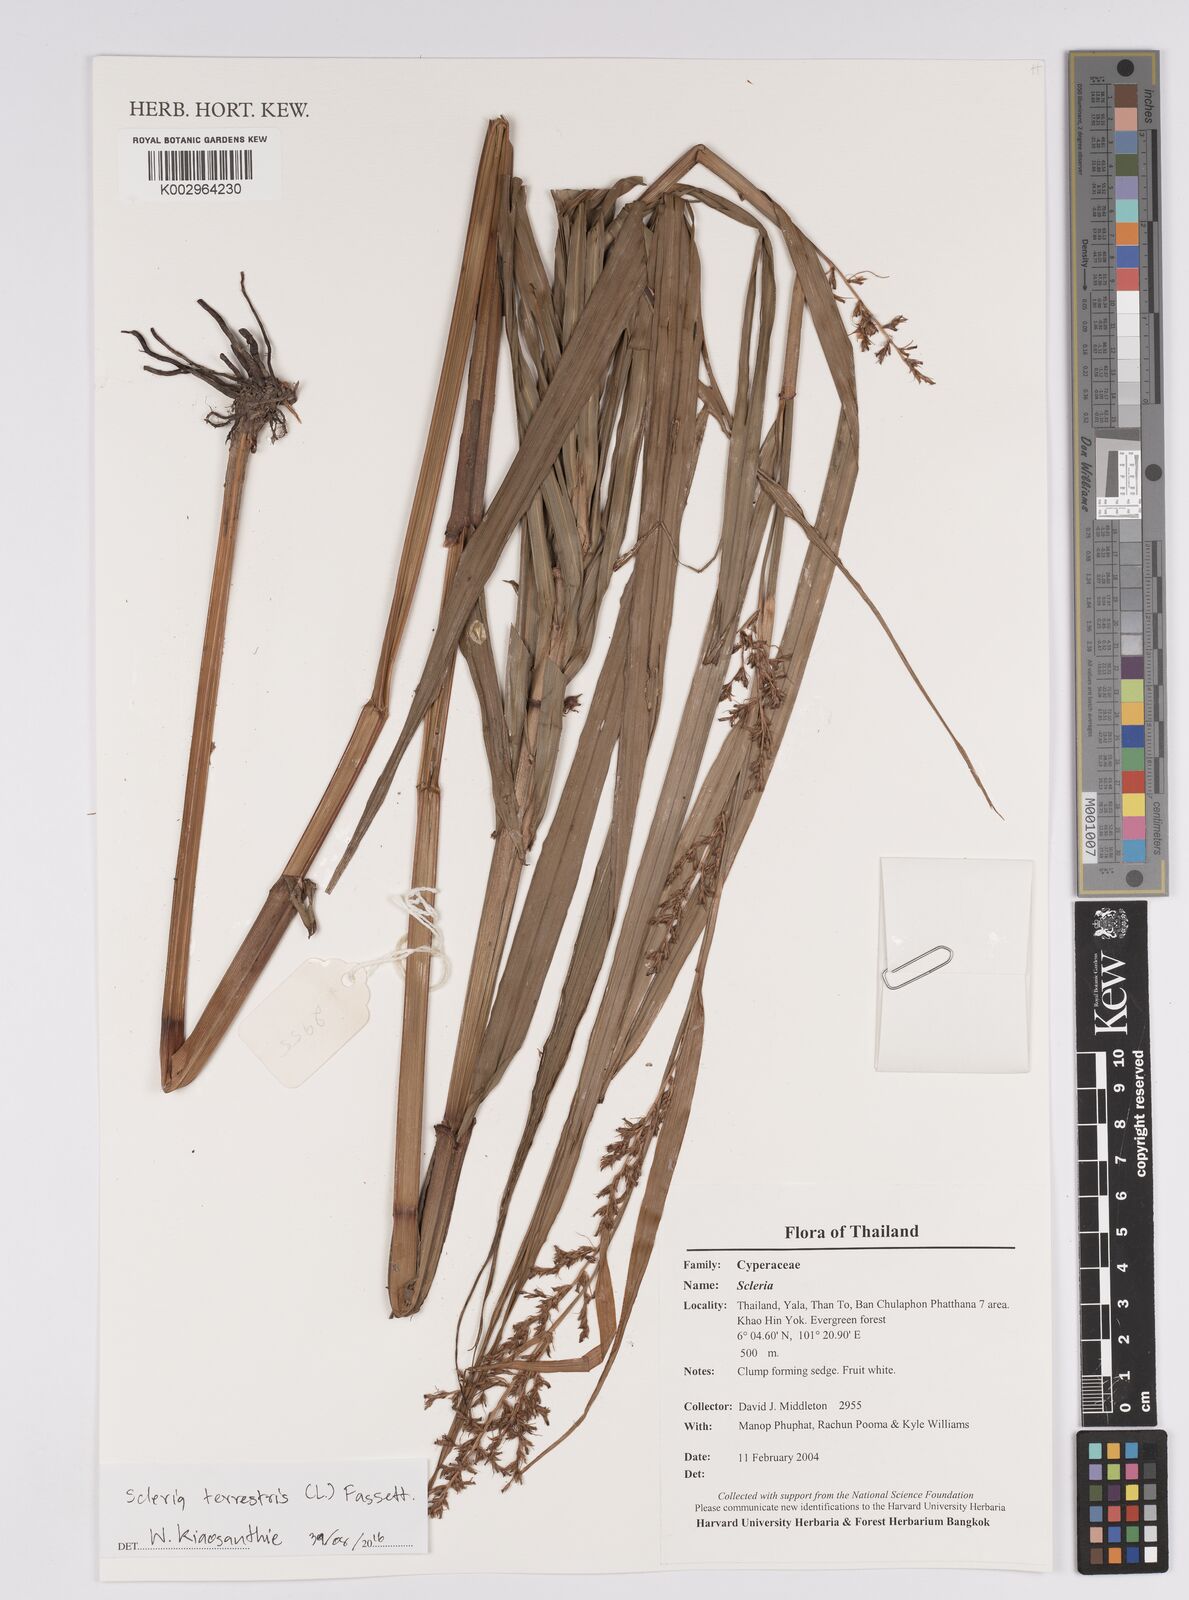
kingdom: Plantae
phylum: Tracheophyta
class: Liliopsida
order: Poales
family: Cyperaceae
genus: Scleria
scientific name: Scleria terrestris
